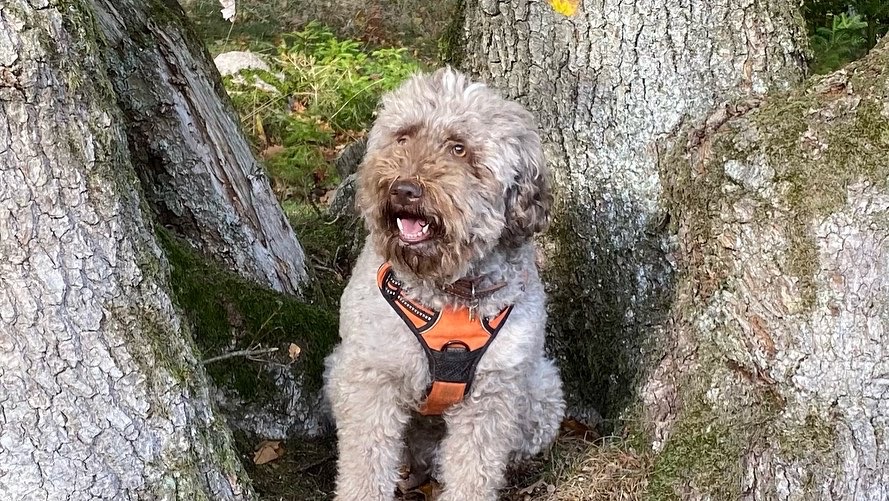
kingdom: Fungi
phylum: Ascomycota
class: Pezizomycetes
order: Pezizales
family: Tuberaceae
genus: Tuber
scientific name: Tuber rufum
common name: rødbrun trøffel
